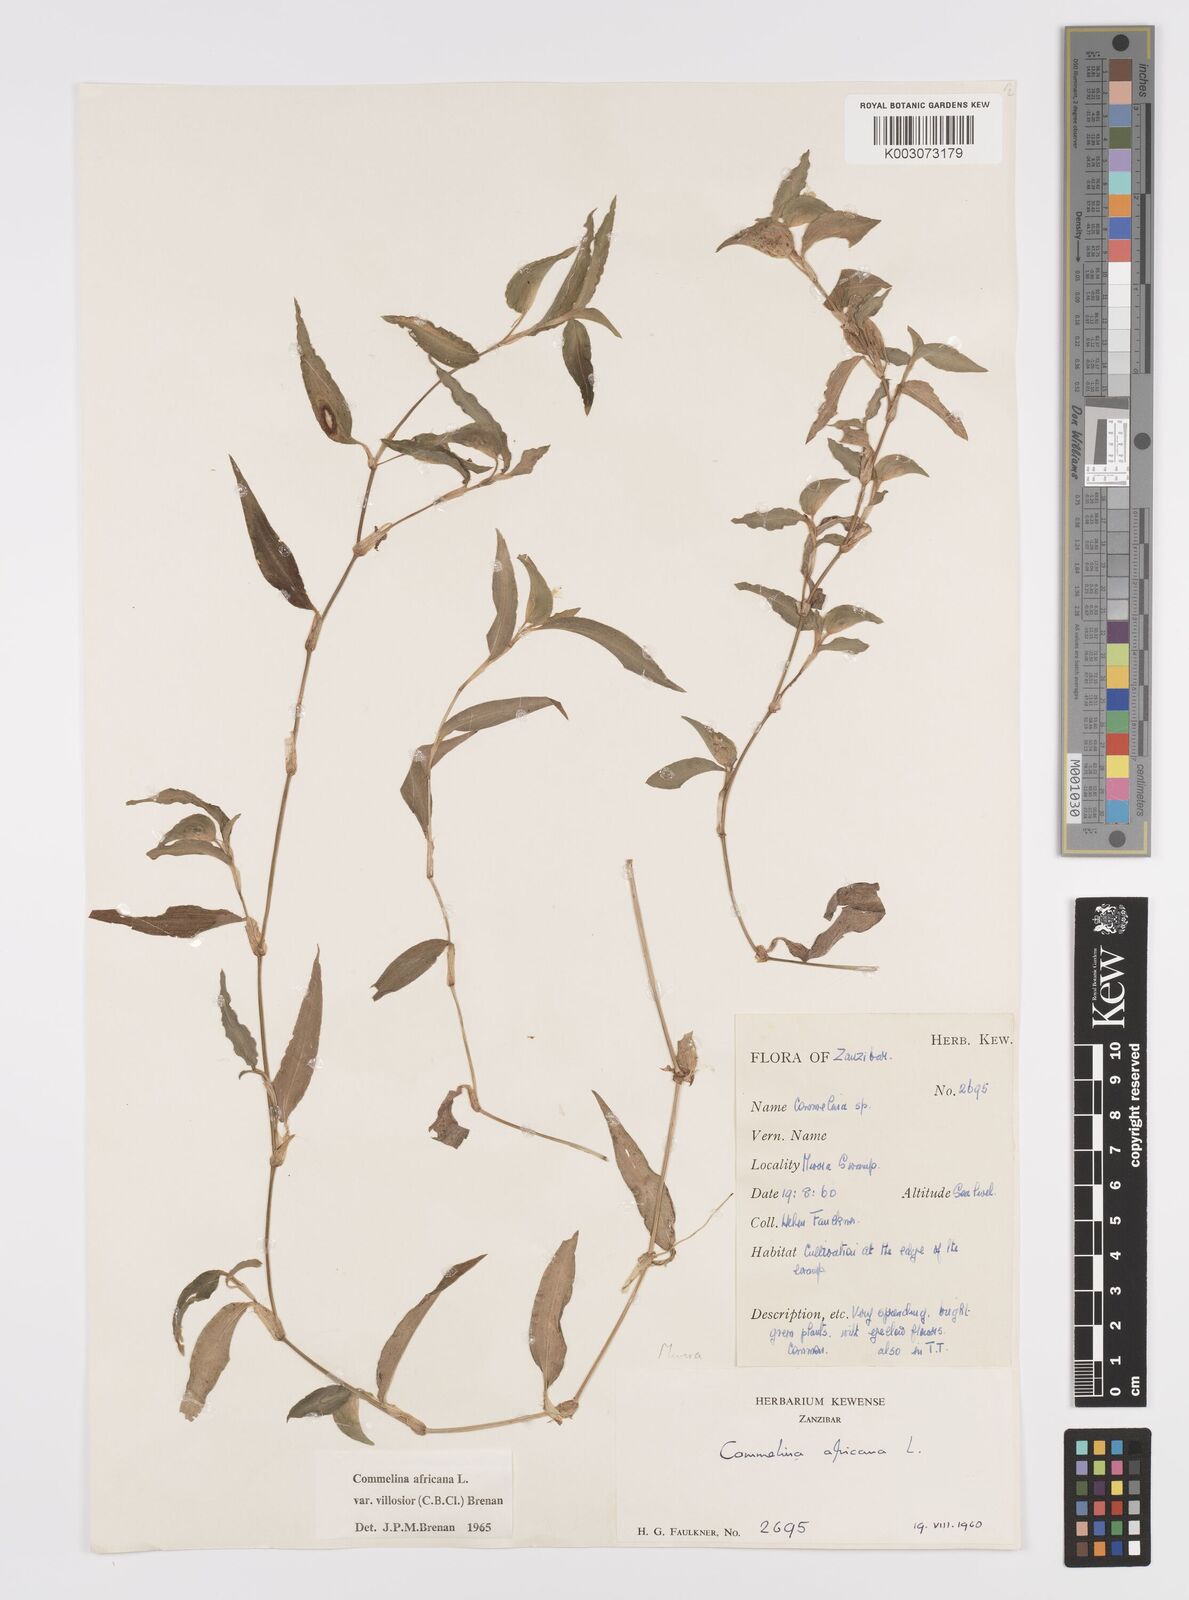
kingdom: Plantae
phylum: Tracheophyta
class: Liliopsida
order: Commelinales
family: Commelinaceae
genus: Commelina
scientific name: Commelina africana
